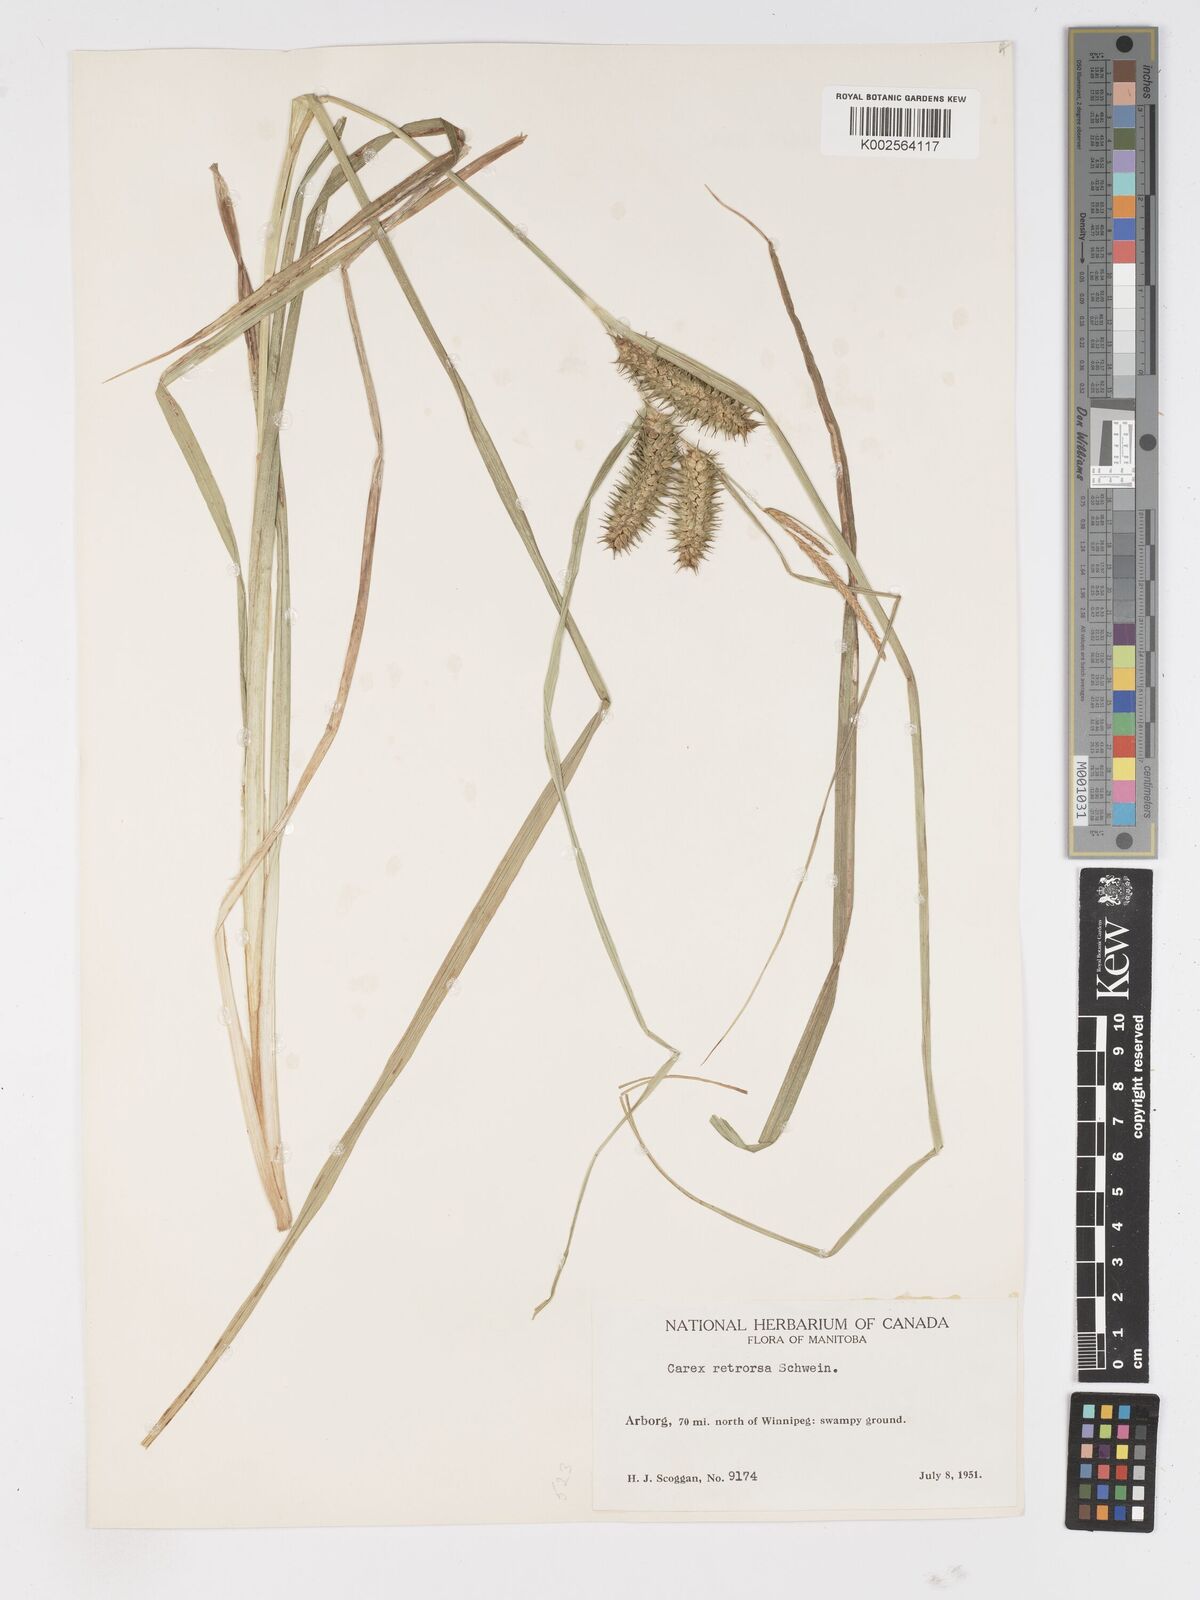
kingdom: Plantae
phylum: Tracheophyta
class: Liliopsida
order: Poales
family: Cyperaceae
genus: Carex
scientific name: Carex retrorsa
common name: Knot-sheath sedge
